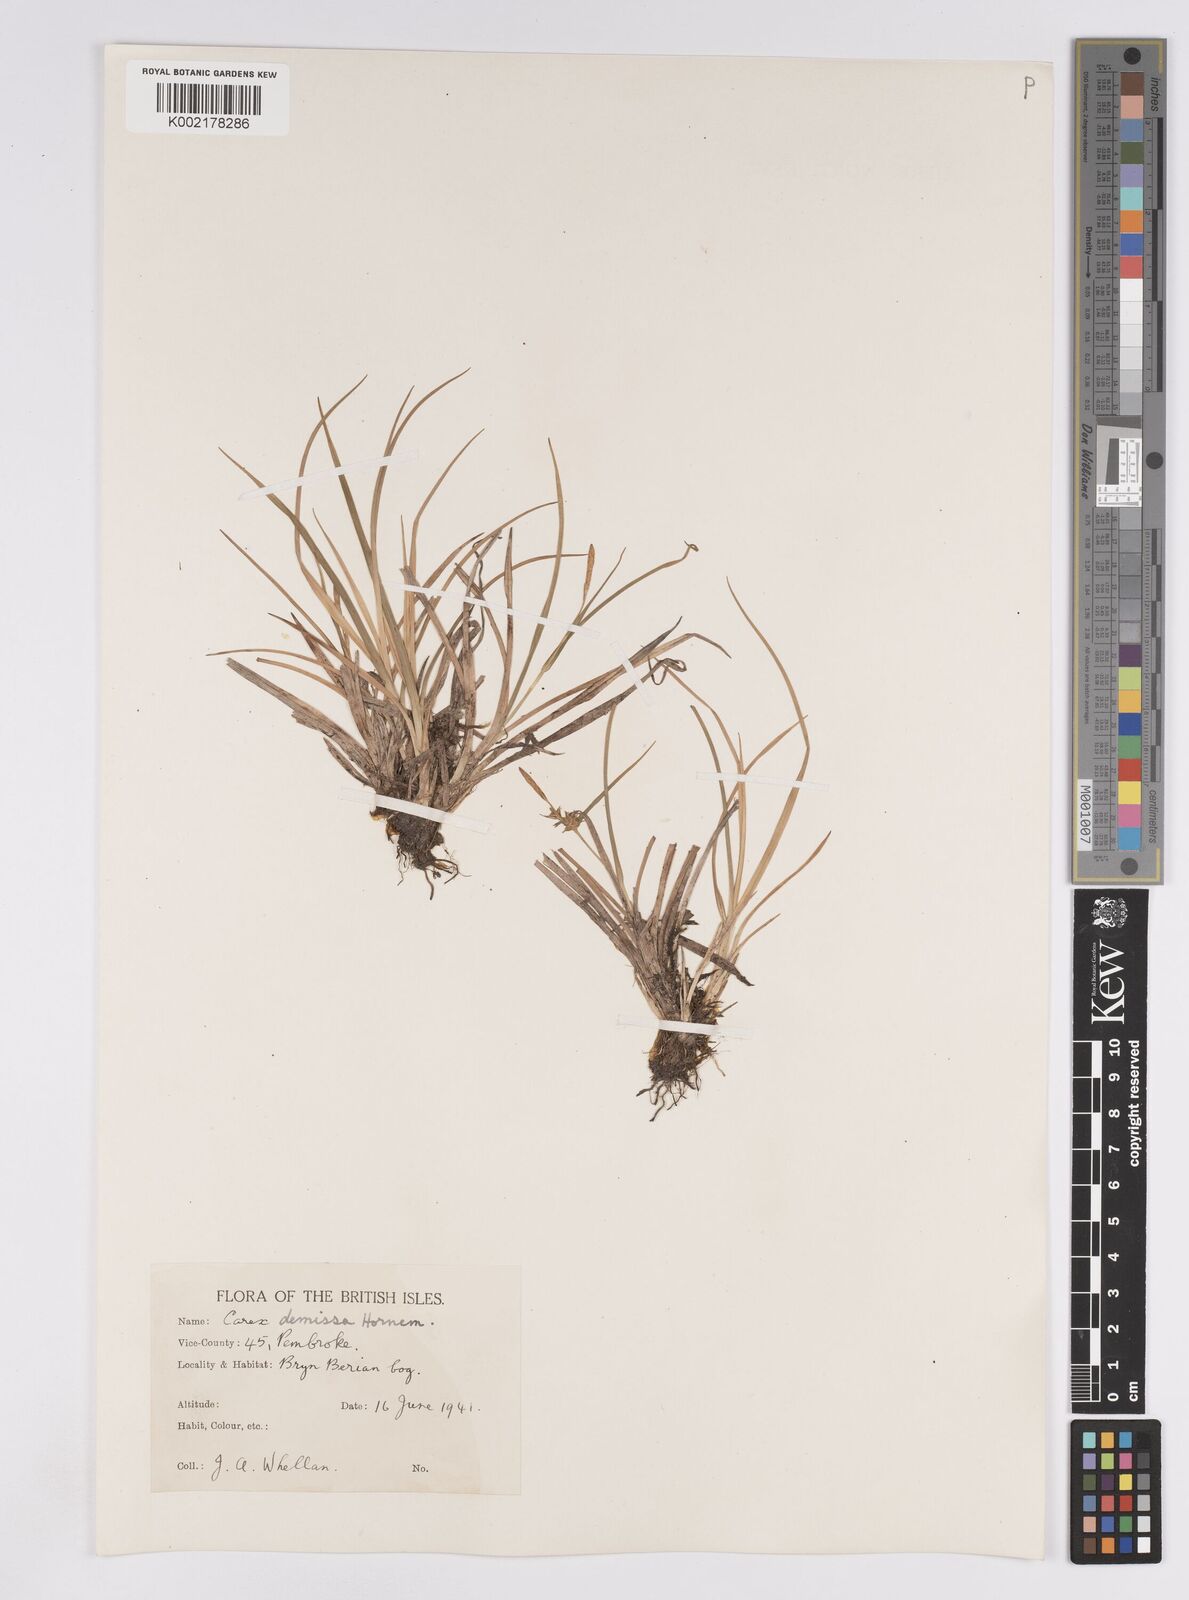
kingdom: Plantae
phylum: Tracheophyta
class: Liliopsida
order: Poales
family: Cyperaceae
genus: Carex
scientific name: Carex demissa
